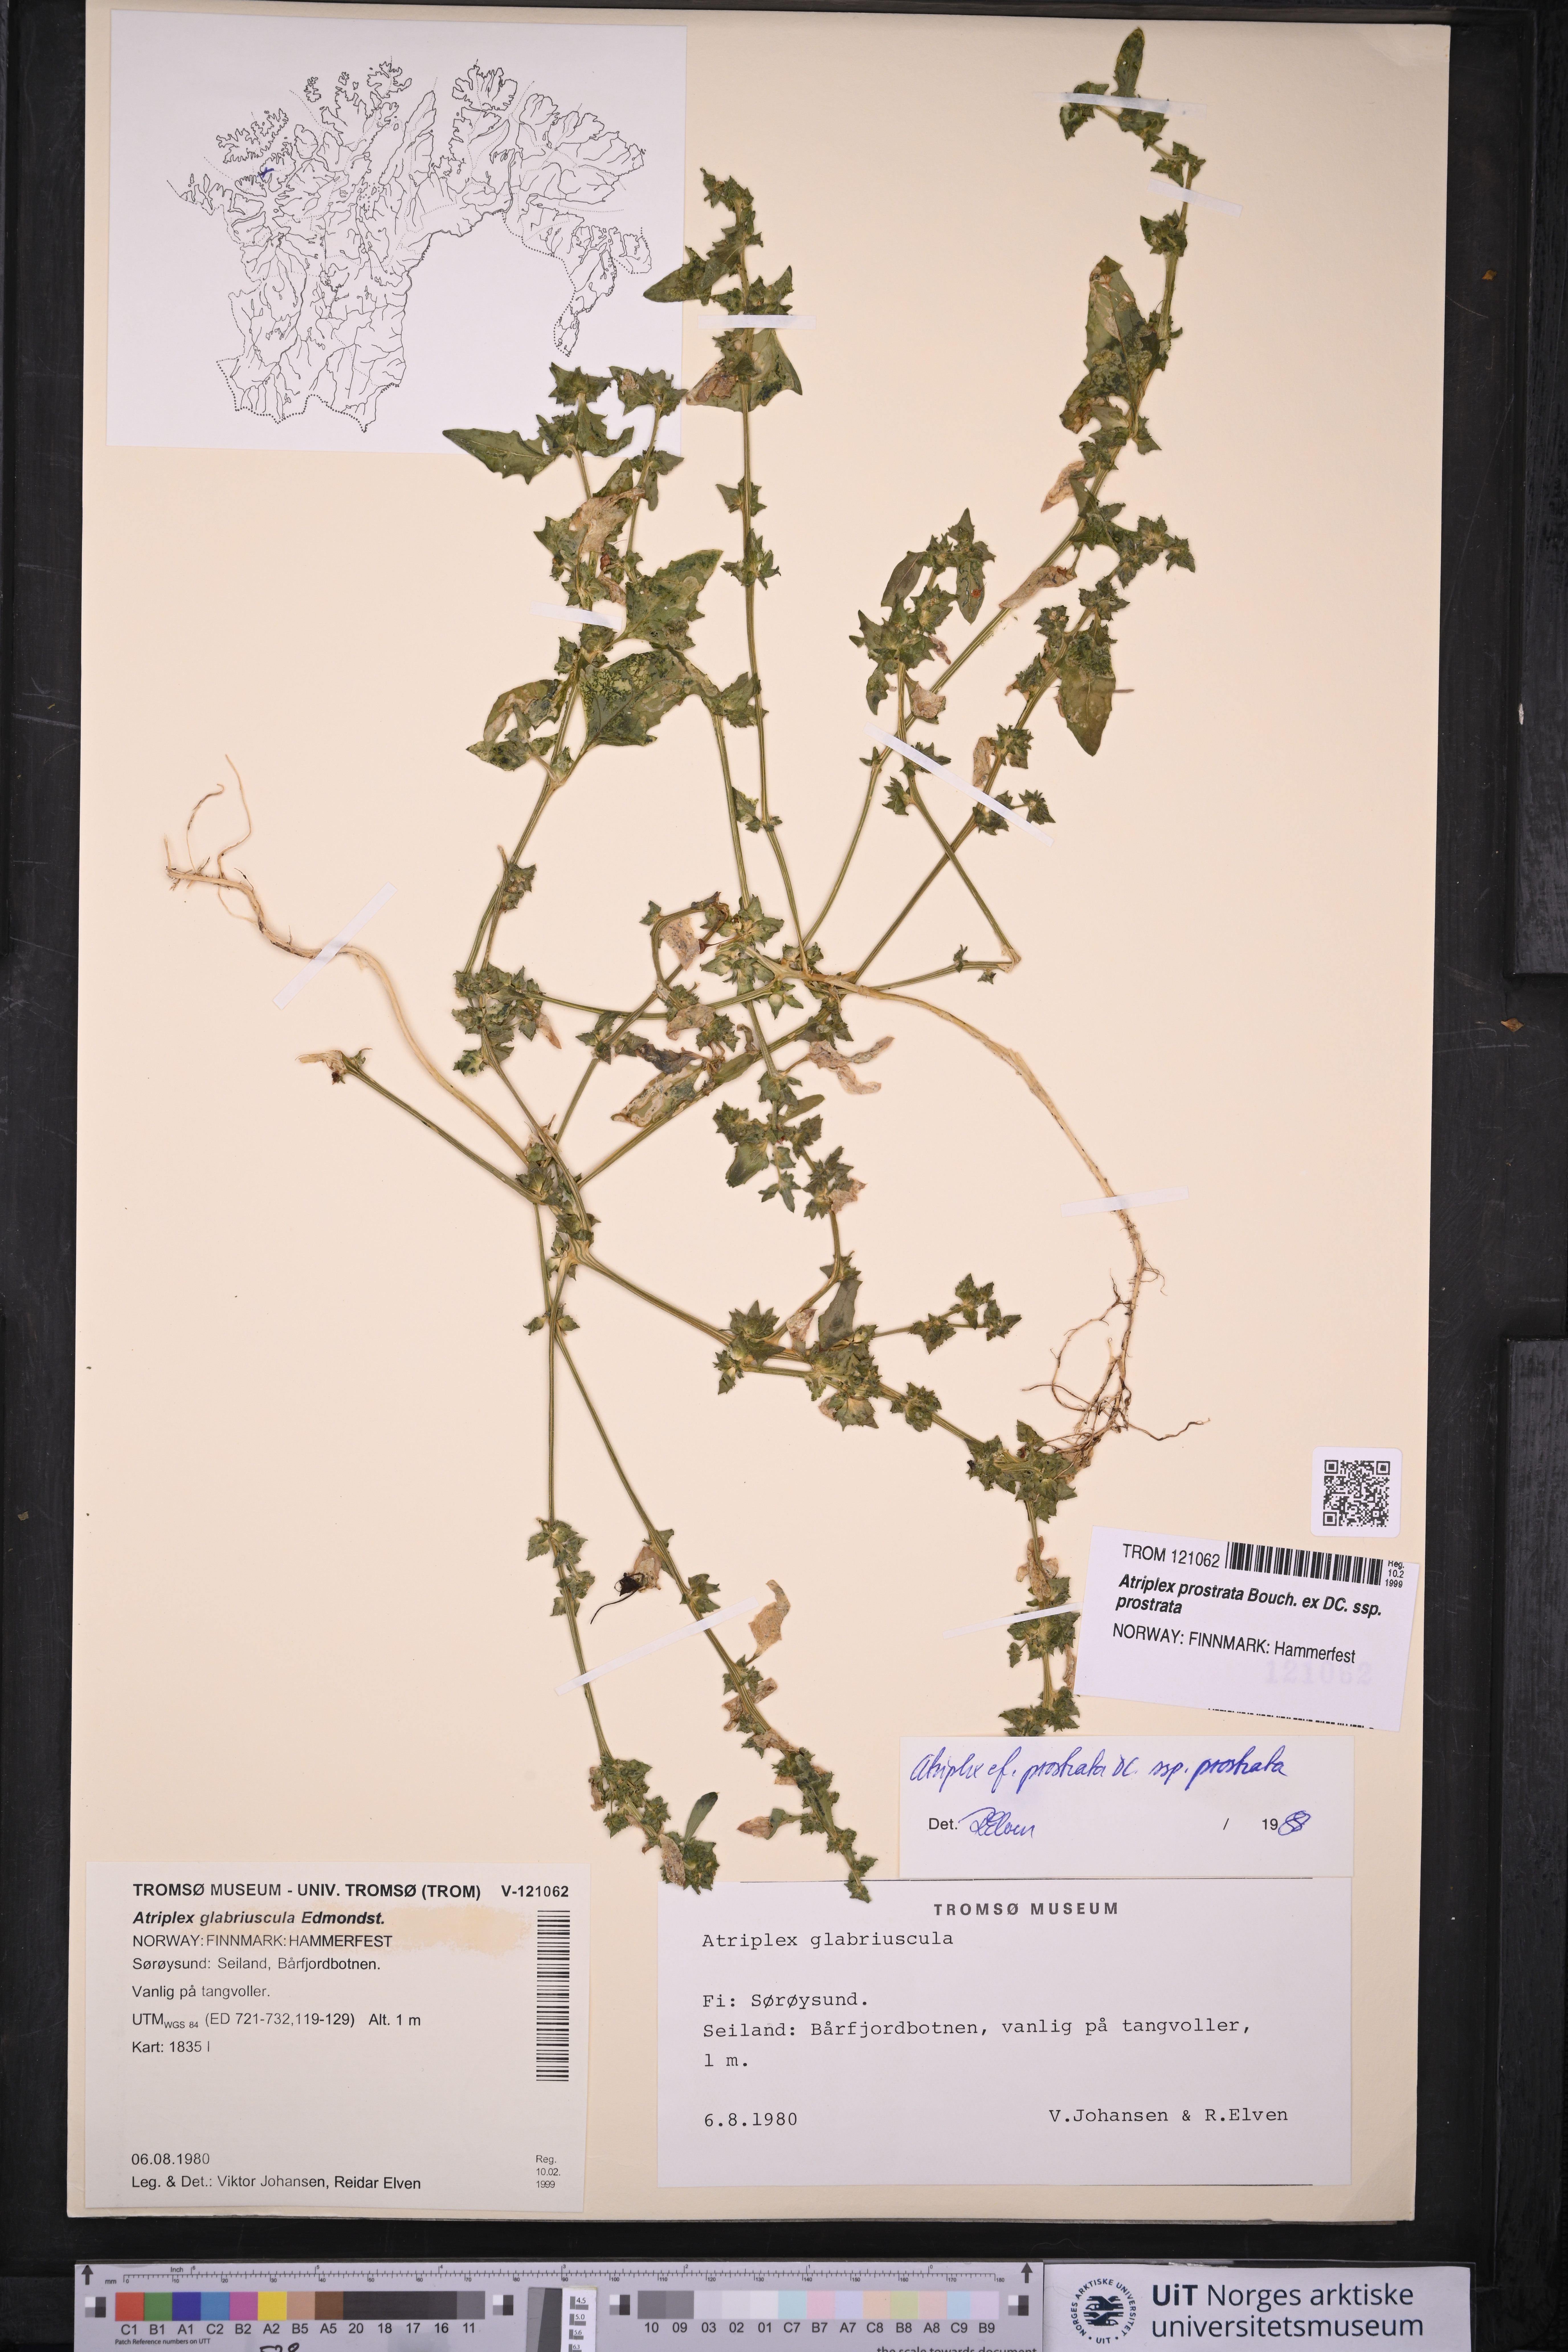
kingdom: Plantae
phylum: Tracheophyta
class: Magnoliopsida
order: Caryophyllales
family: Amaranthaceae
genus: Atriplex
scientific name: Atriplex prostrata
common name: Spear-leaved orache
